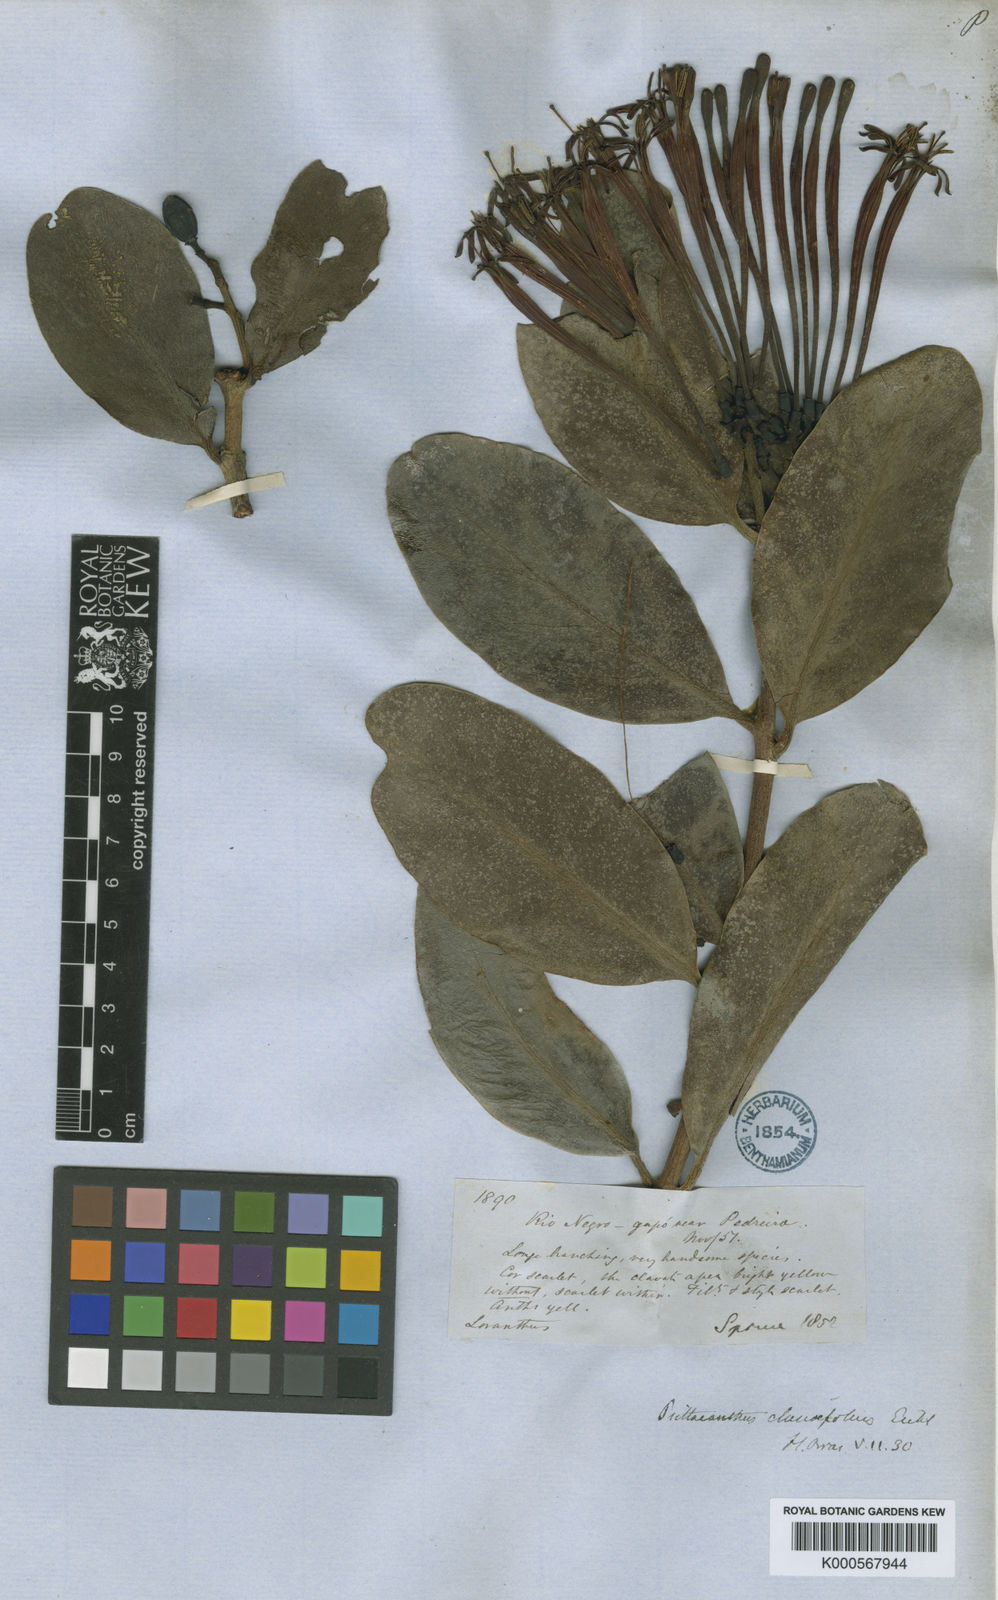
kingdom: Plantae
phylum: Tracheophyta
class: Magnoliopsida
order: Santalales
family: Loranthaceae
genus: Psittacanthus
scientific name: Psittacanthus clusiifolius
